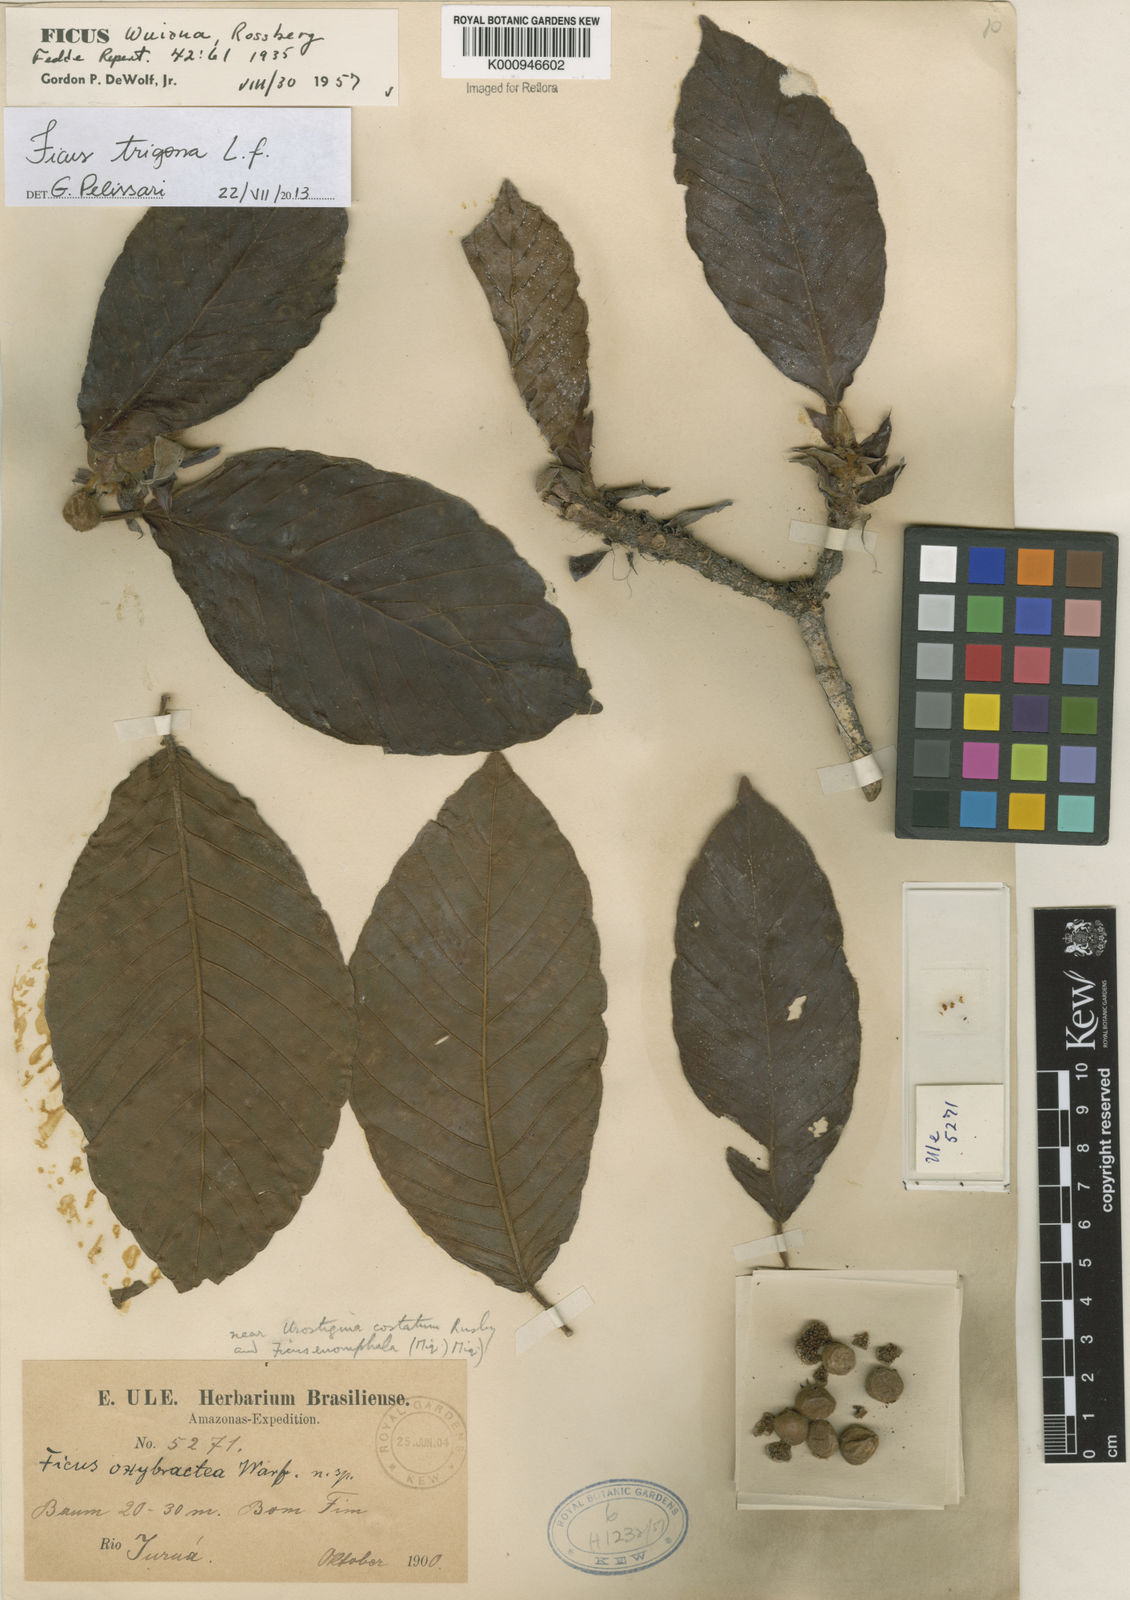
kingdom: Plantae
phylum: Tracheophyta
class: Magnoliopsida
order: Rosales
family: Moraceae
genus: Ficus
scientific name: Ficus trigona
